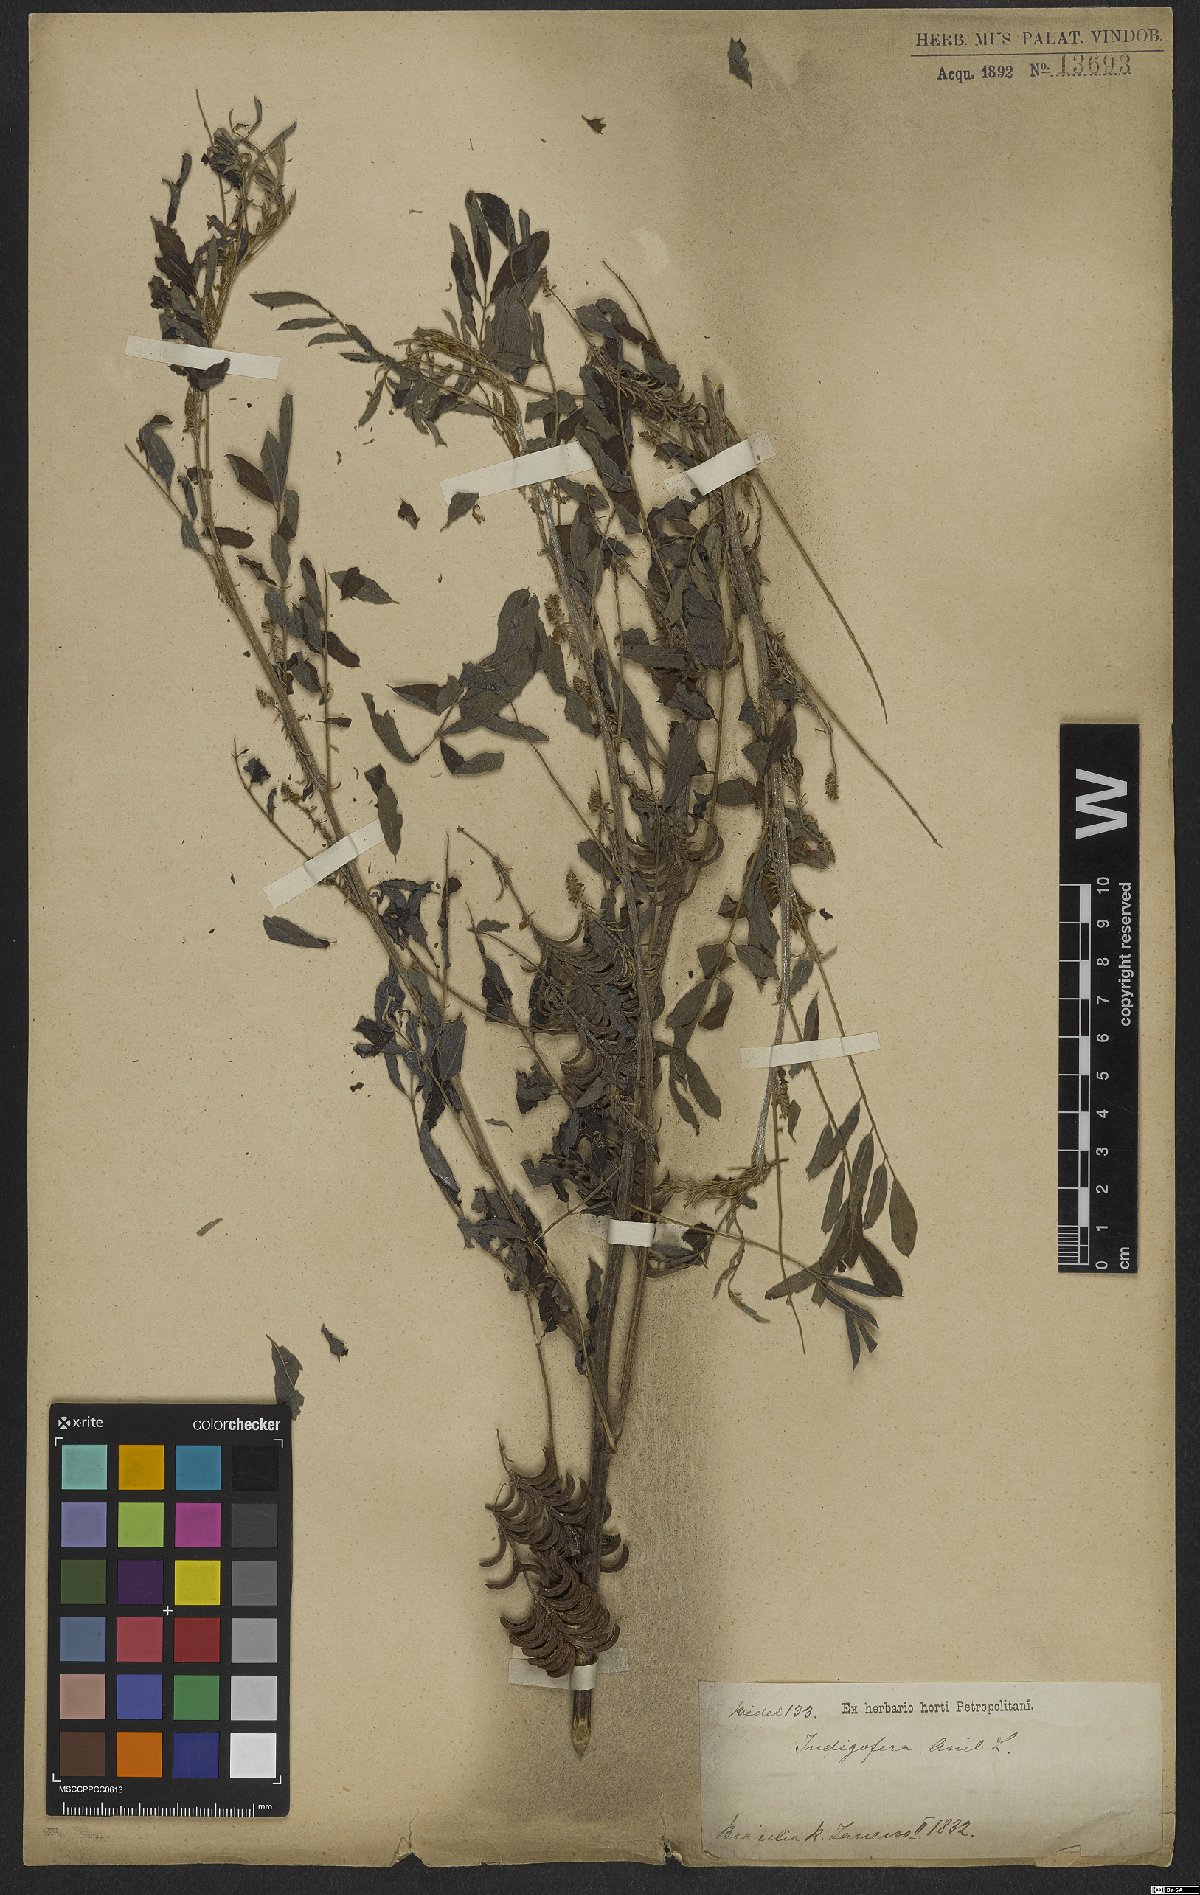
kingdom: Plantae
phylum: Tracheophyta
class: Magnoliopsida
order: Fabales
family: Fabaceae
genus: Indigofera
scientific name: Indigofera suffruticosa
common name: Anil de pasto
